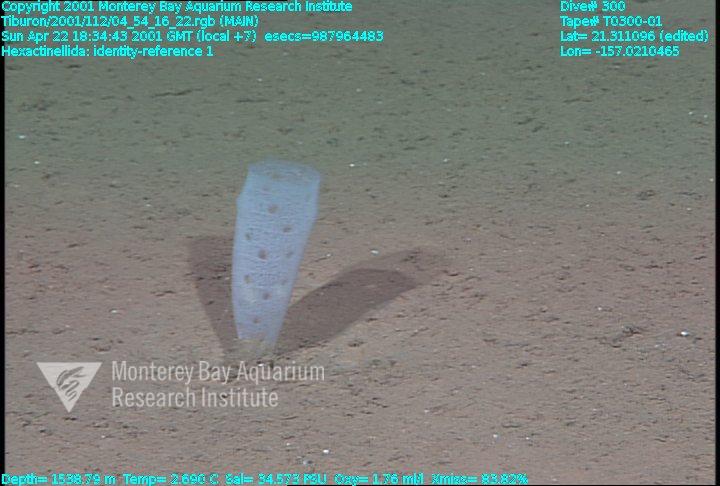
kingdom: Animalia
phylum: Porifera
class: Hexactinellida
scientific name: Hexactinellida
